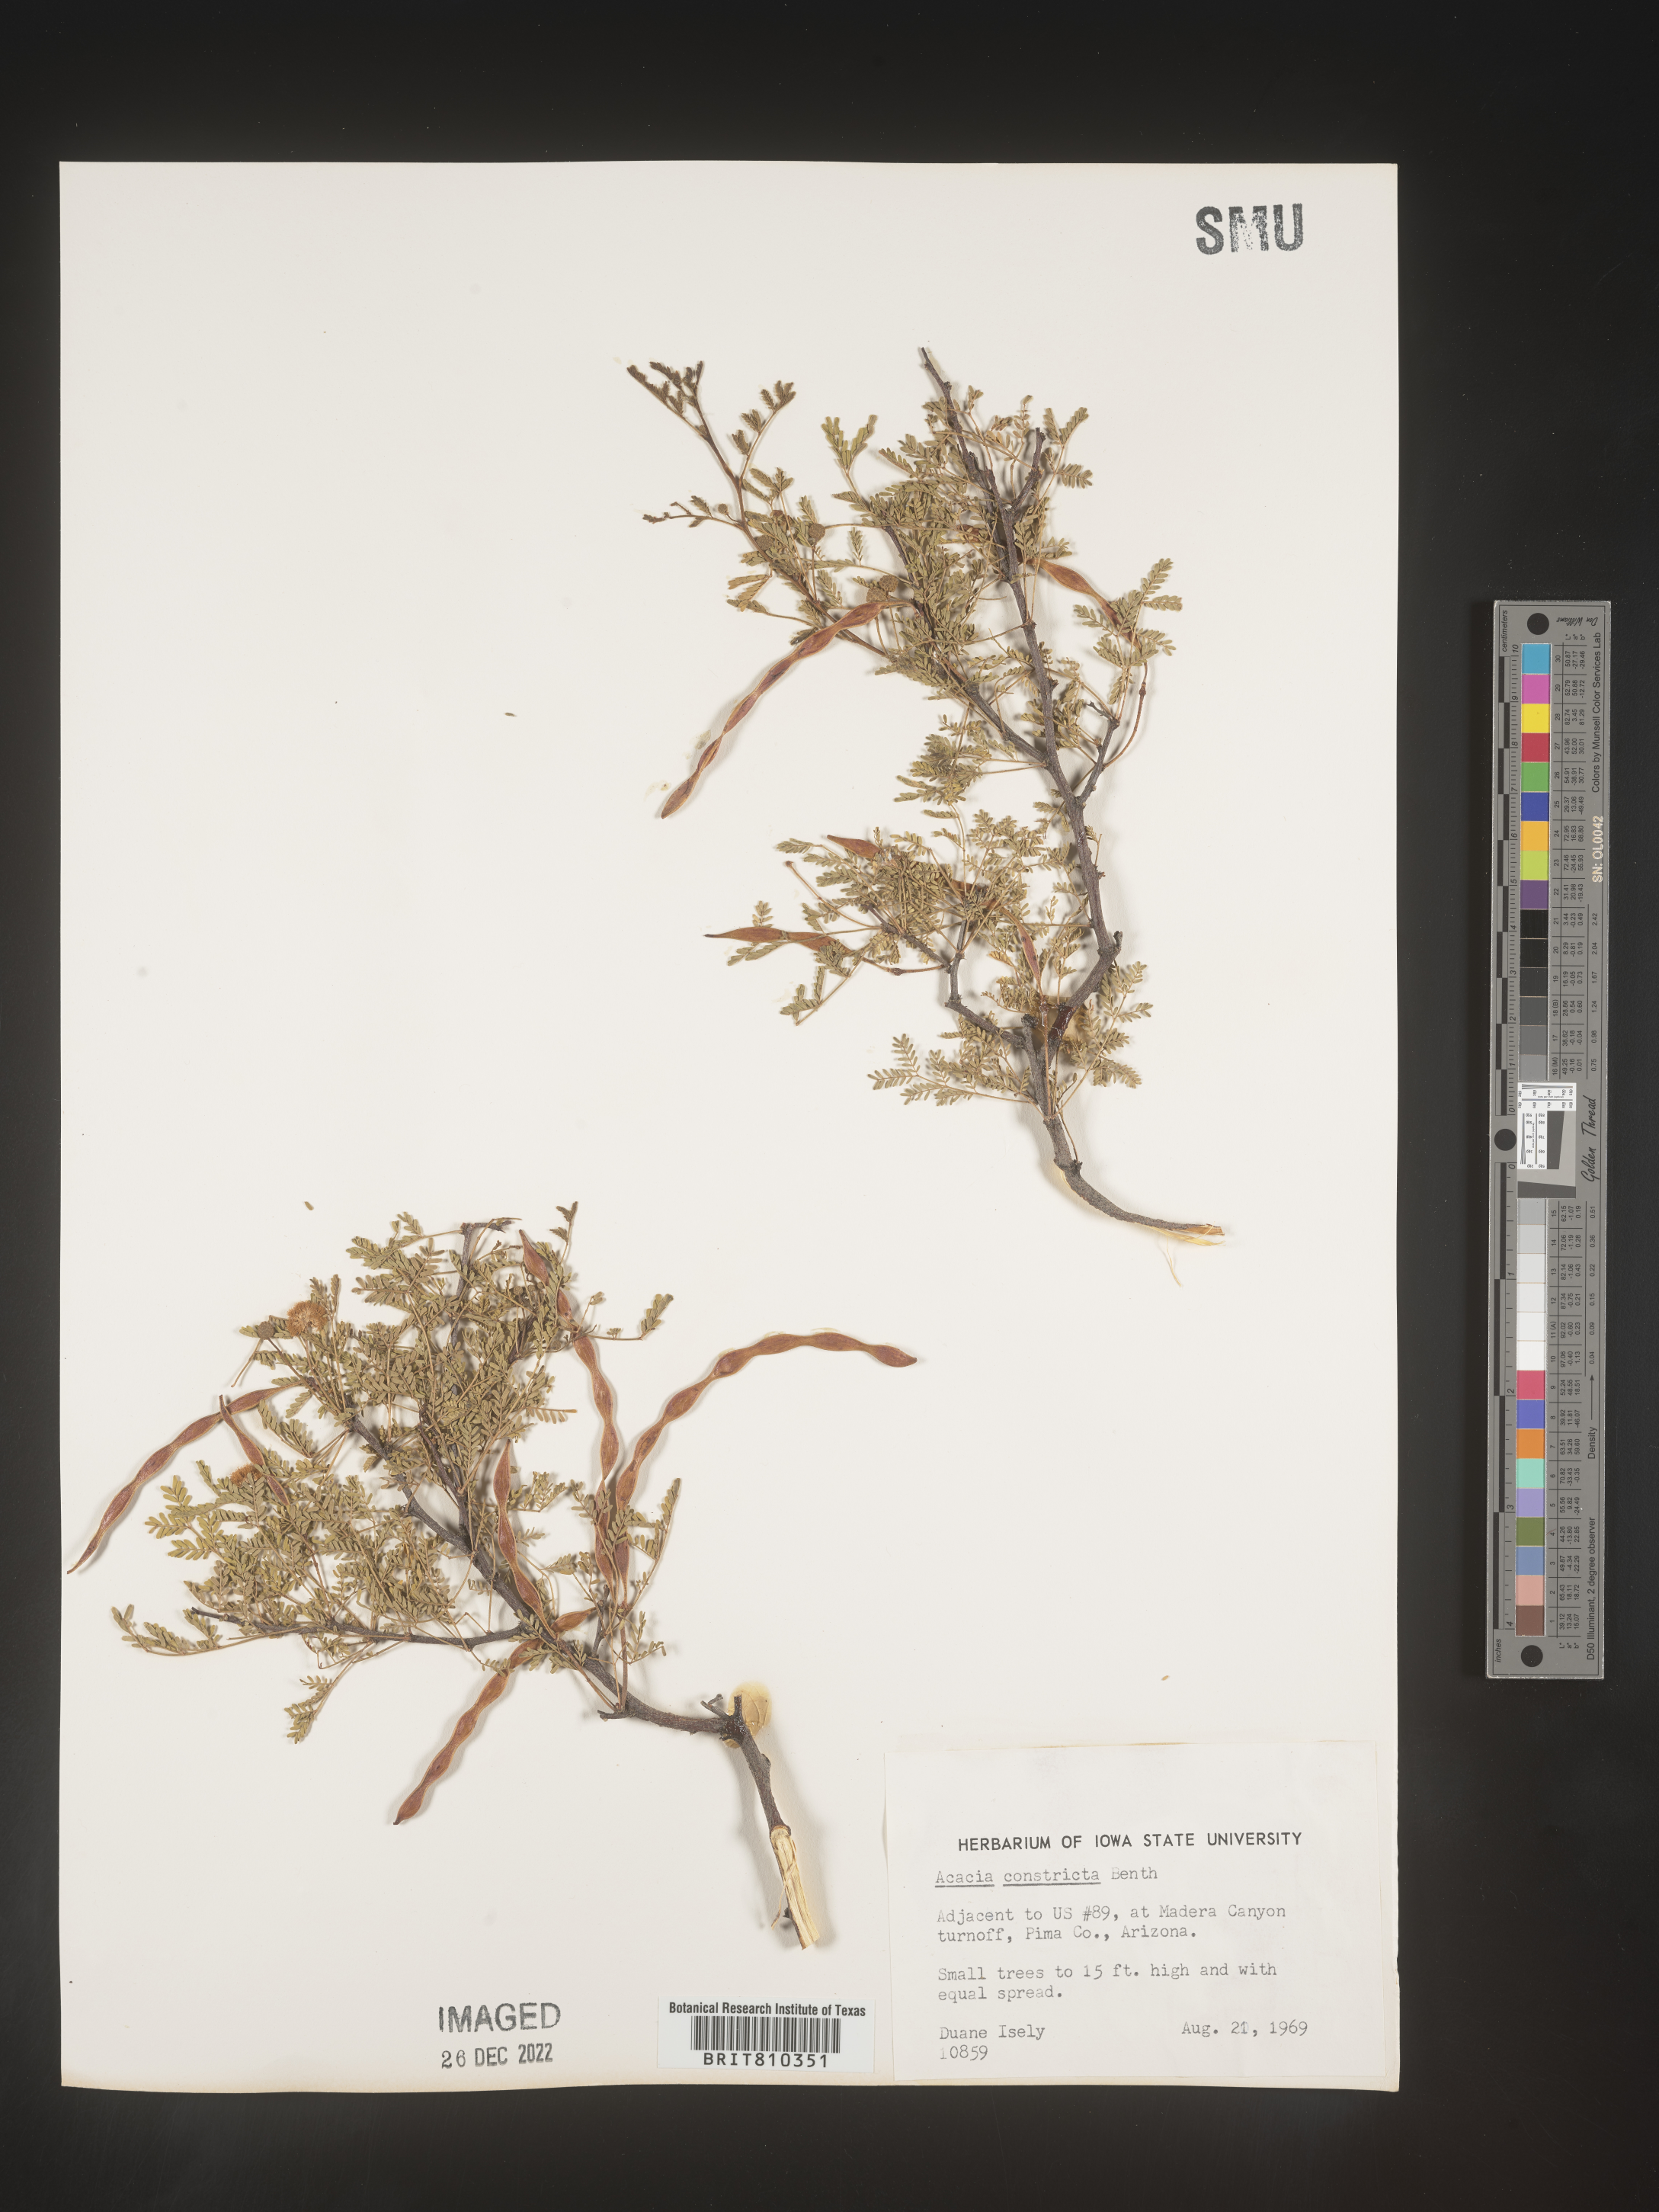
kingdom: Plantae
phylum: Tracheophyta
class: Magnoliopsida
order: Fabales
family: Fabaceae
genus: Acacia
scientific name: Acacia
